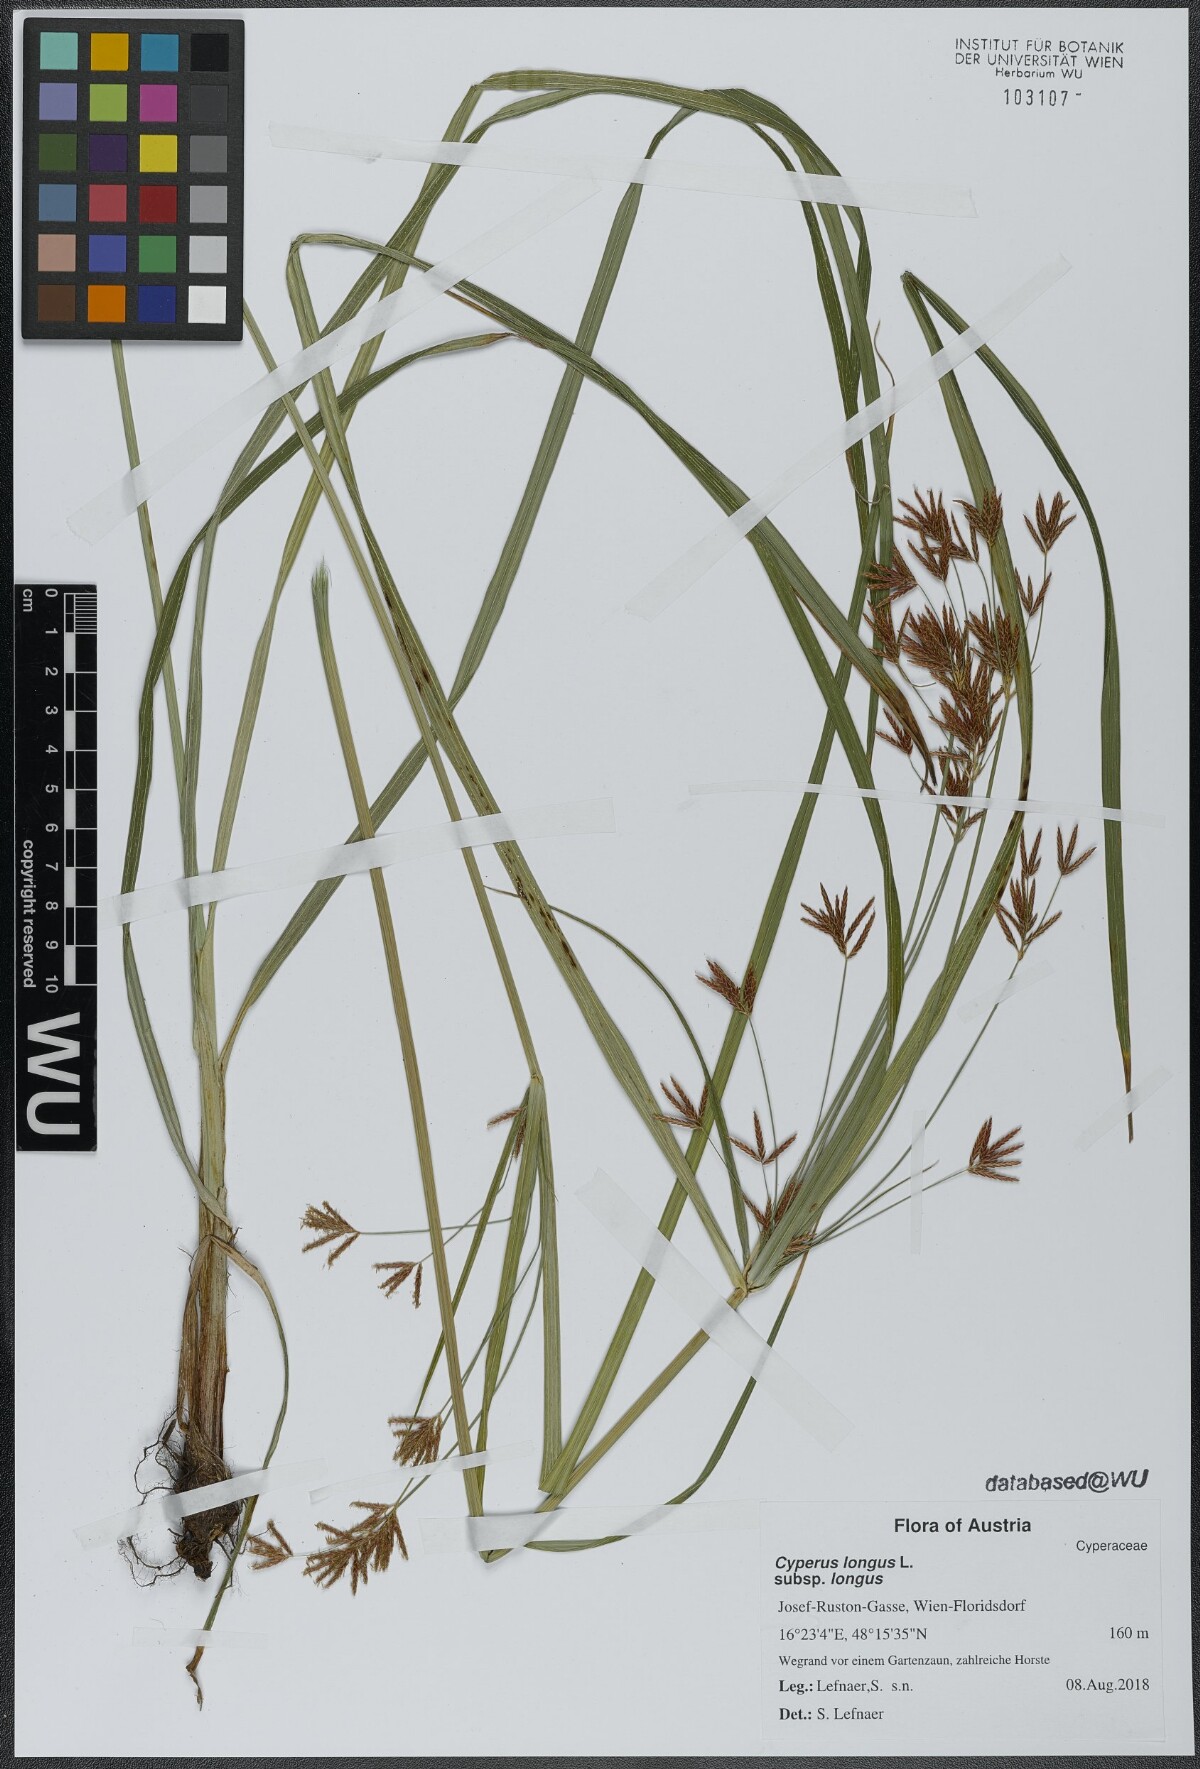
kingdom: Plantae
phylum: Tracheophyta
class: Liliopsida
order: Poales
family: Cyperaceae
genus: Cyperus
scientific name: Cyperus longus
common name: Galingale
